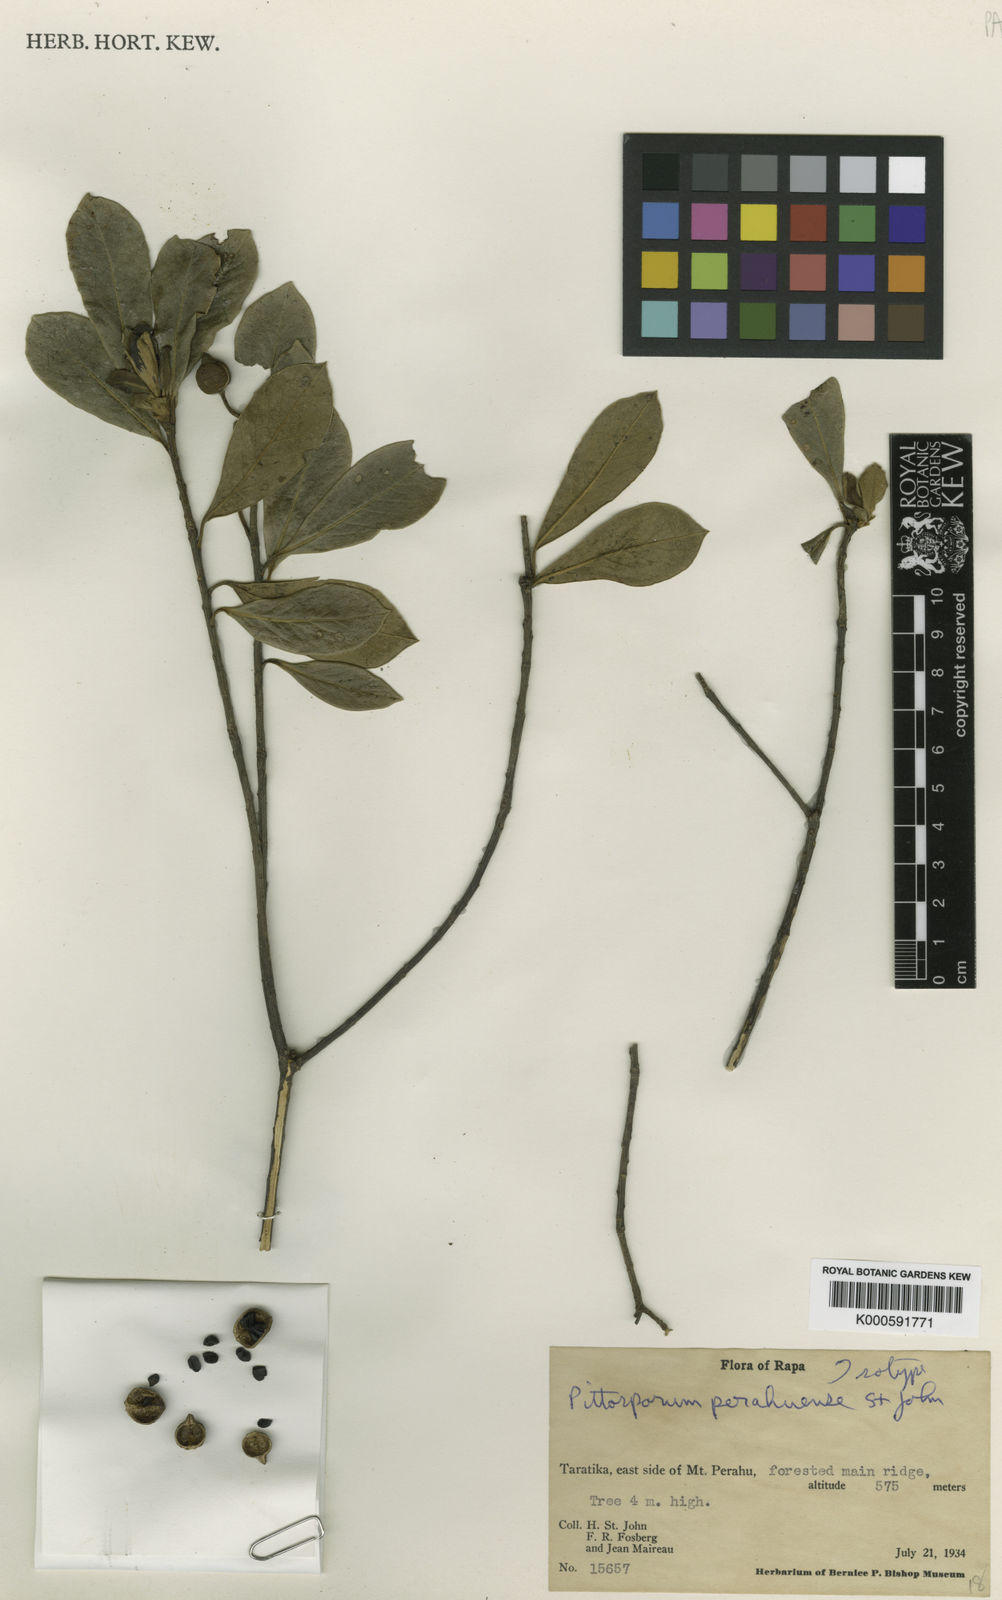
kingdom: Plantae
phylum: Tracheophyta
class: Magnoliopsida
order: Apiales
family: Pittosporaceae
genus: Pittosporum
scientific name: Pittosporum perahuense
